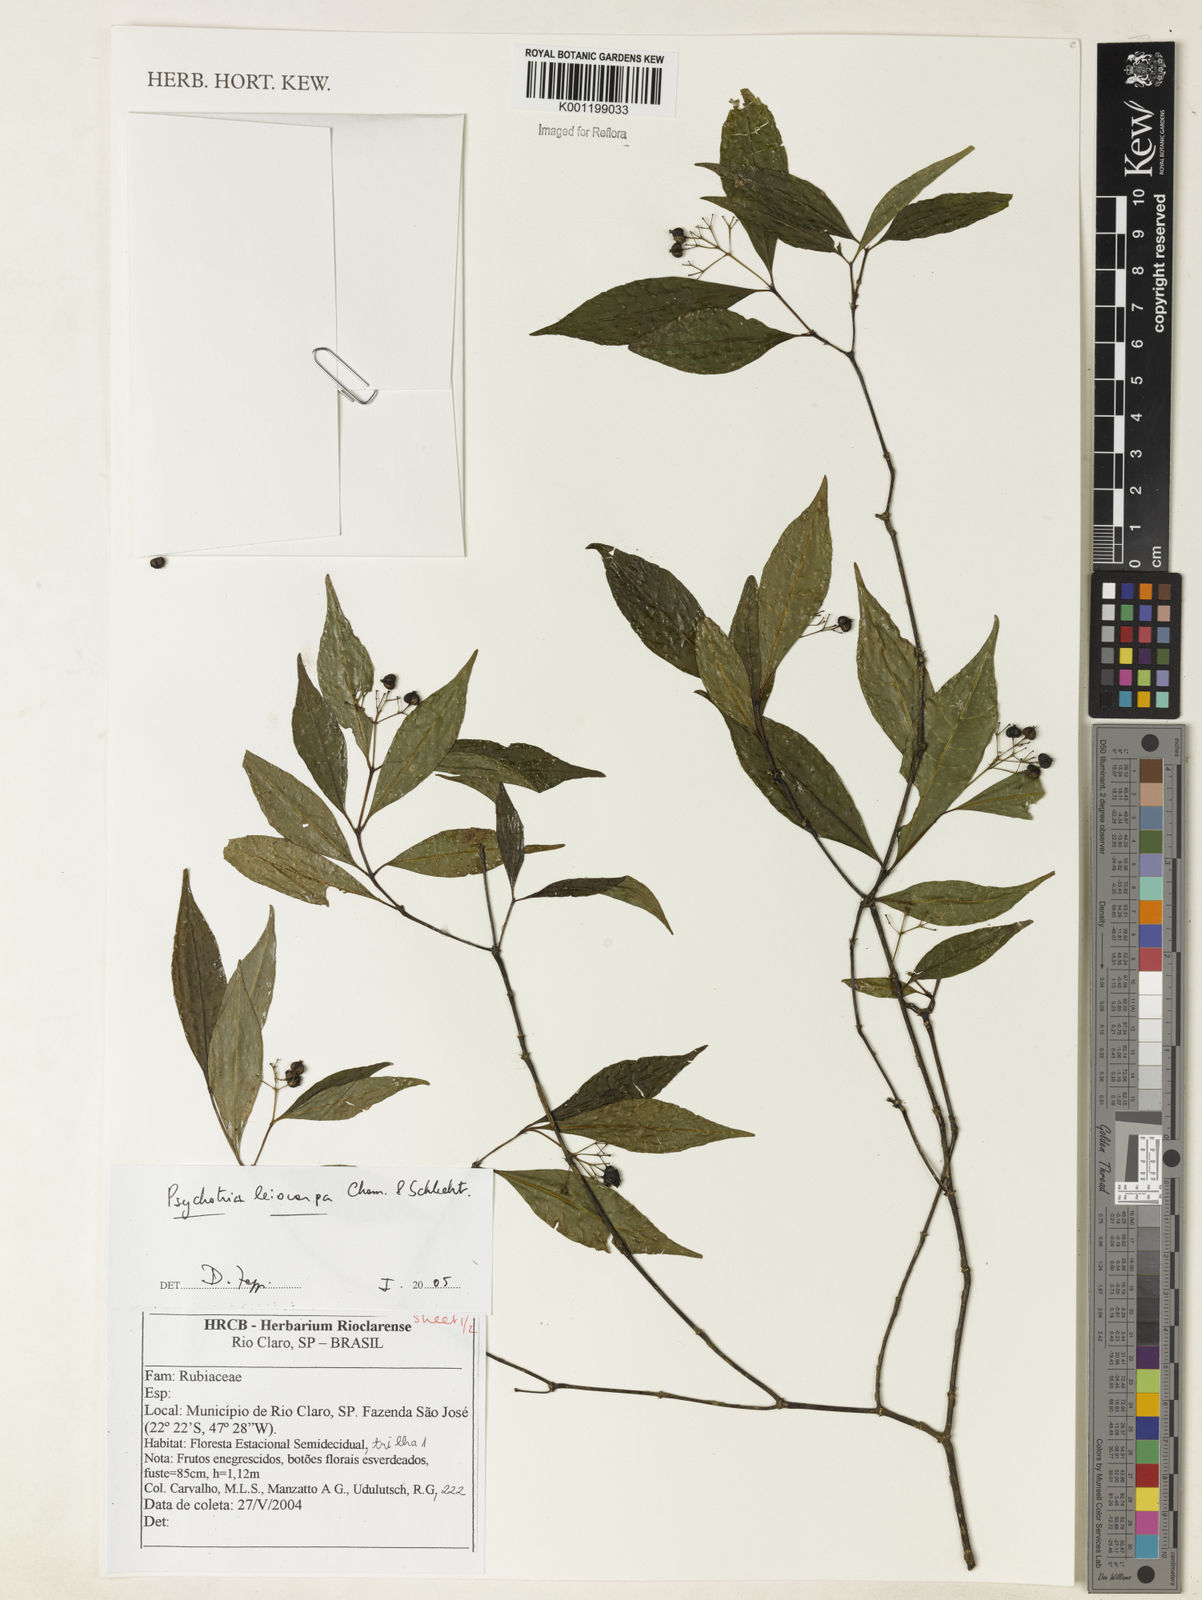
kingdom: Plantae
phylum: Tracheophyta
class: Magnoliopsida
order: Gentianales
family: Rubiaceae
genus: Psychotria
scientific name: Psychotria leiocarpa
